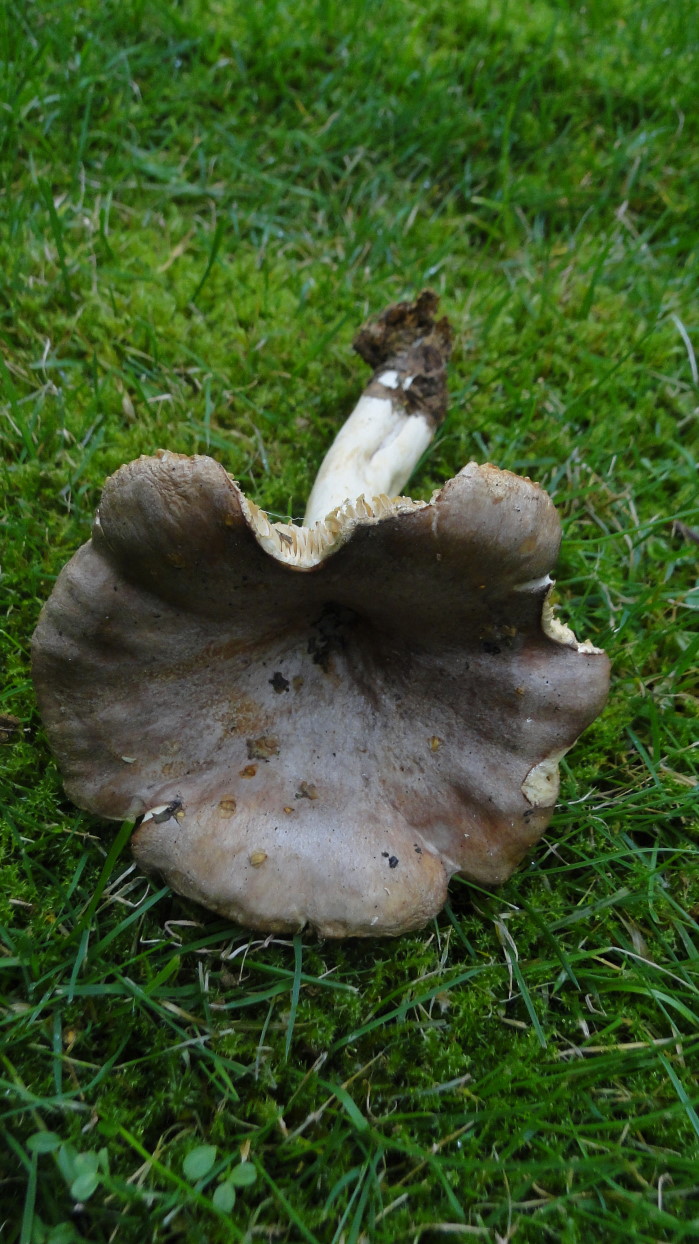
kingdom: Fungi
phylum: Basidiomycota
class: Agaricomycetes
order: Russulales
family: Russulaceae
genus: Lactarius
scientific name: Lactarius trivialis
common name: nordisk mælkehat
